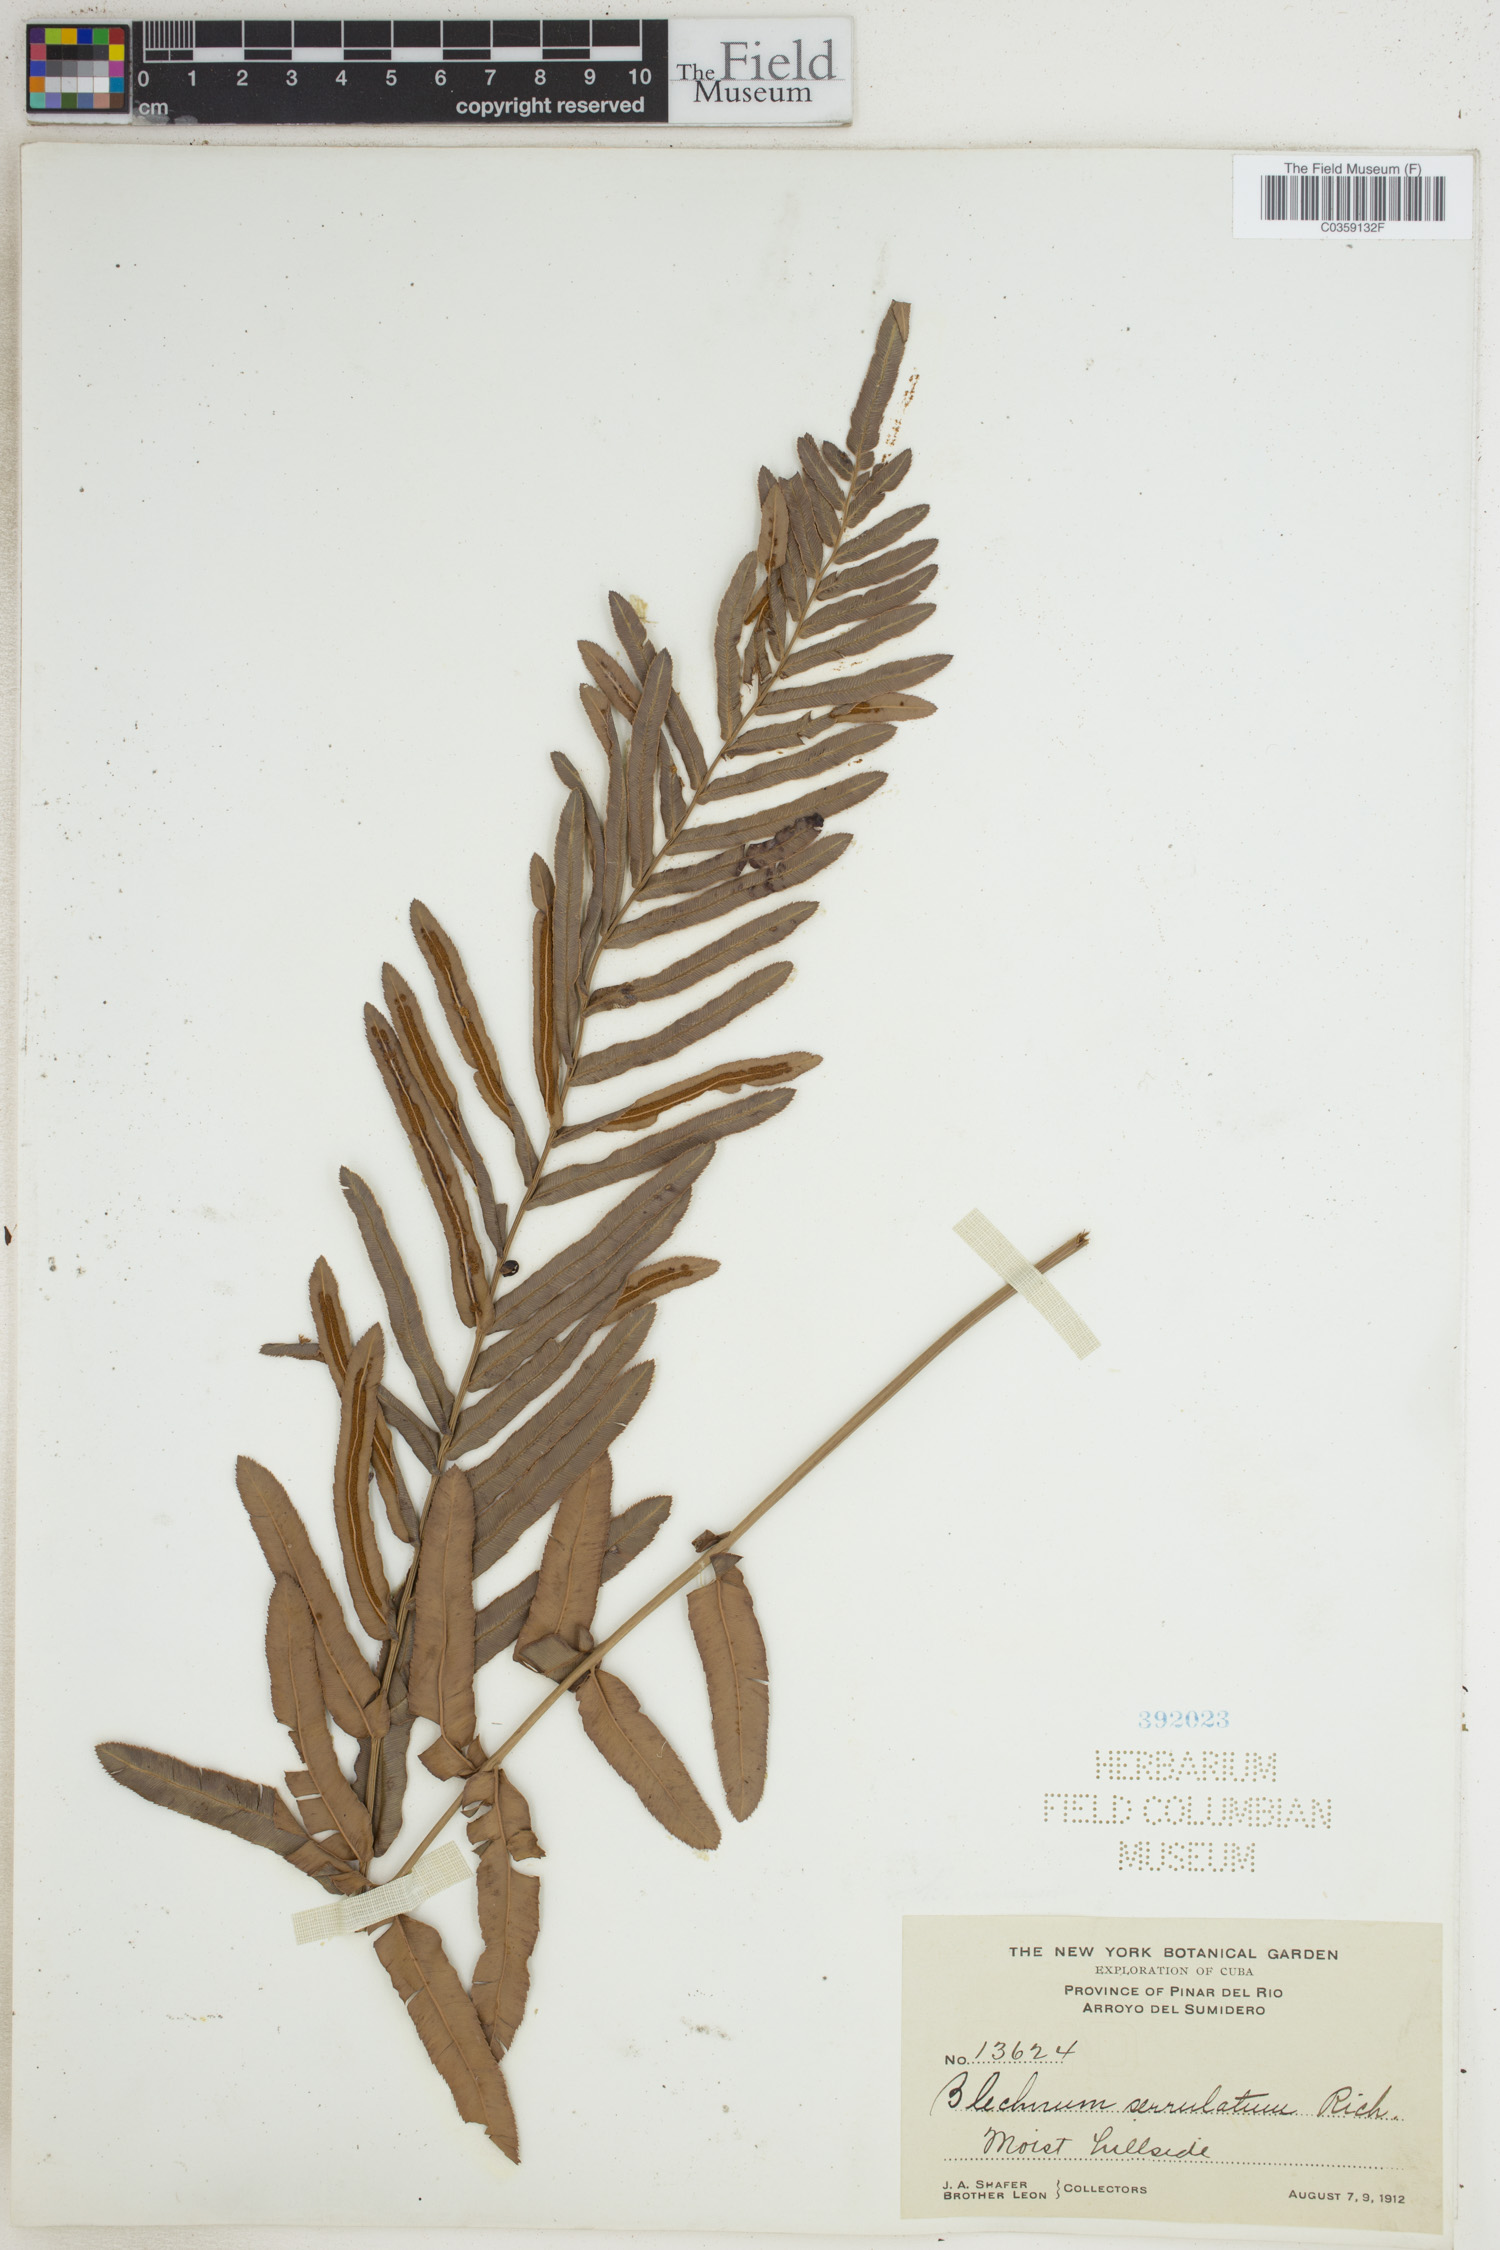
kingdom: Plantae
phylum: Tracheophyta
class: Polypodiopsida
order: Polypodiales
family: Blechnaceae
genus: Telmatoblechnum
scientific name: Telmatoblechnum serrulatum
